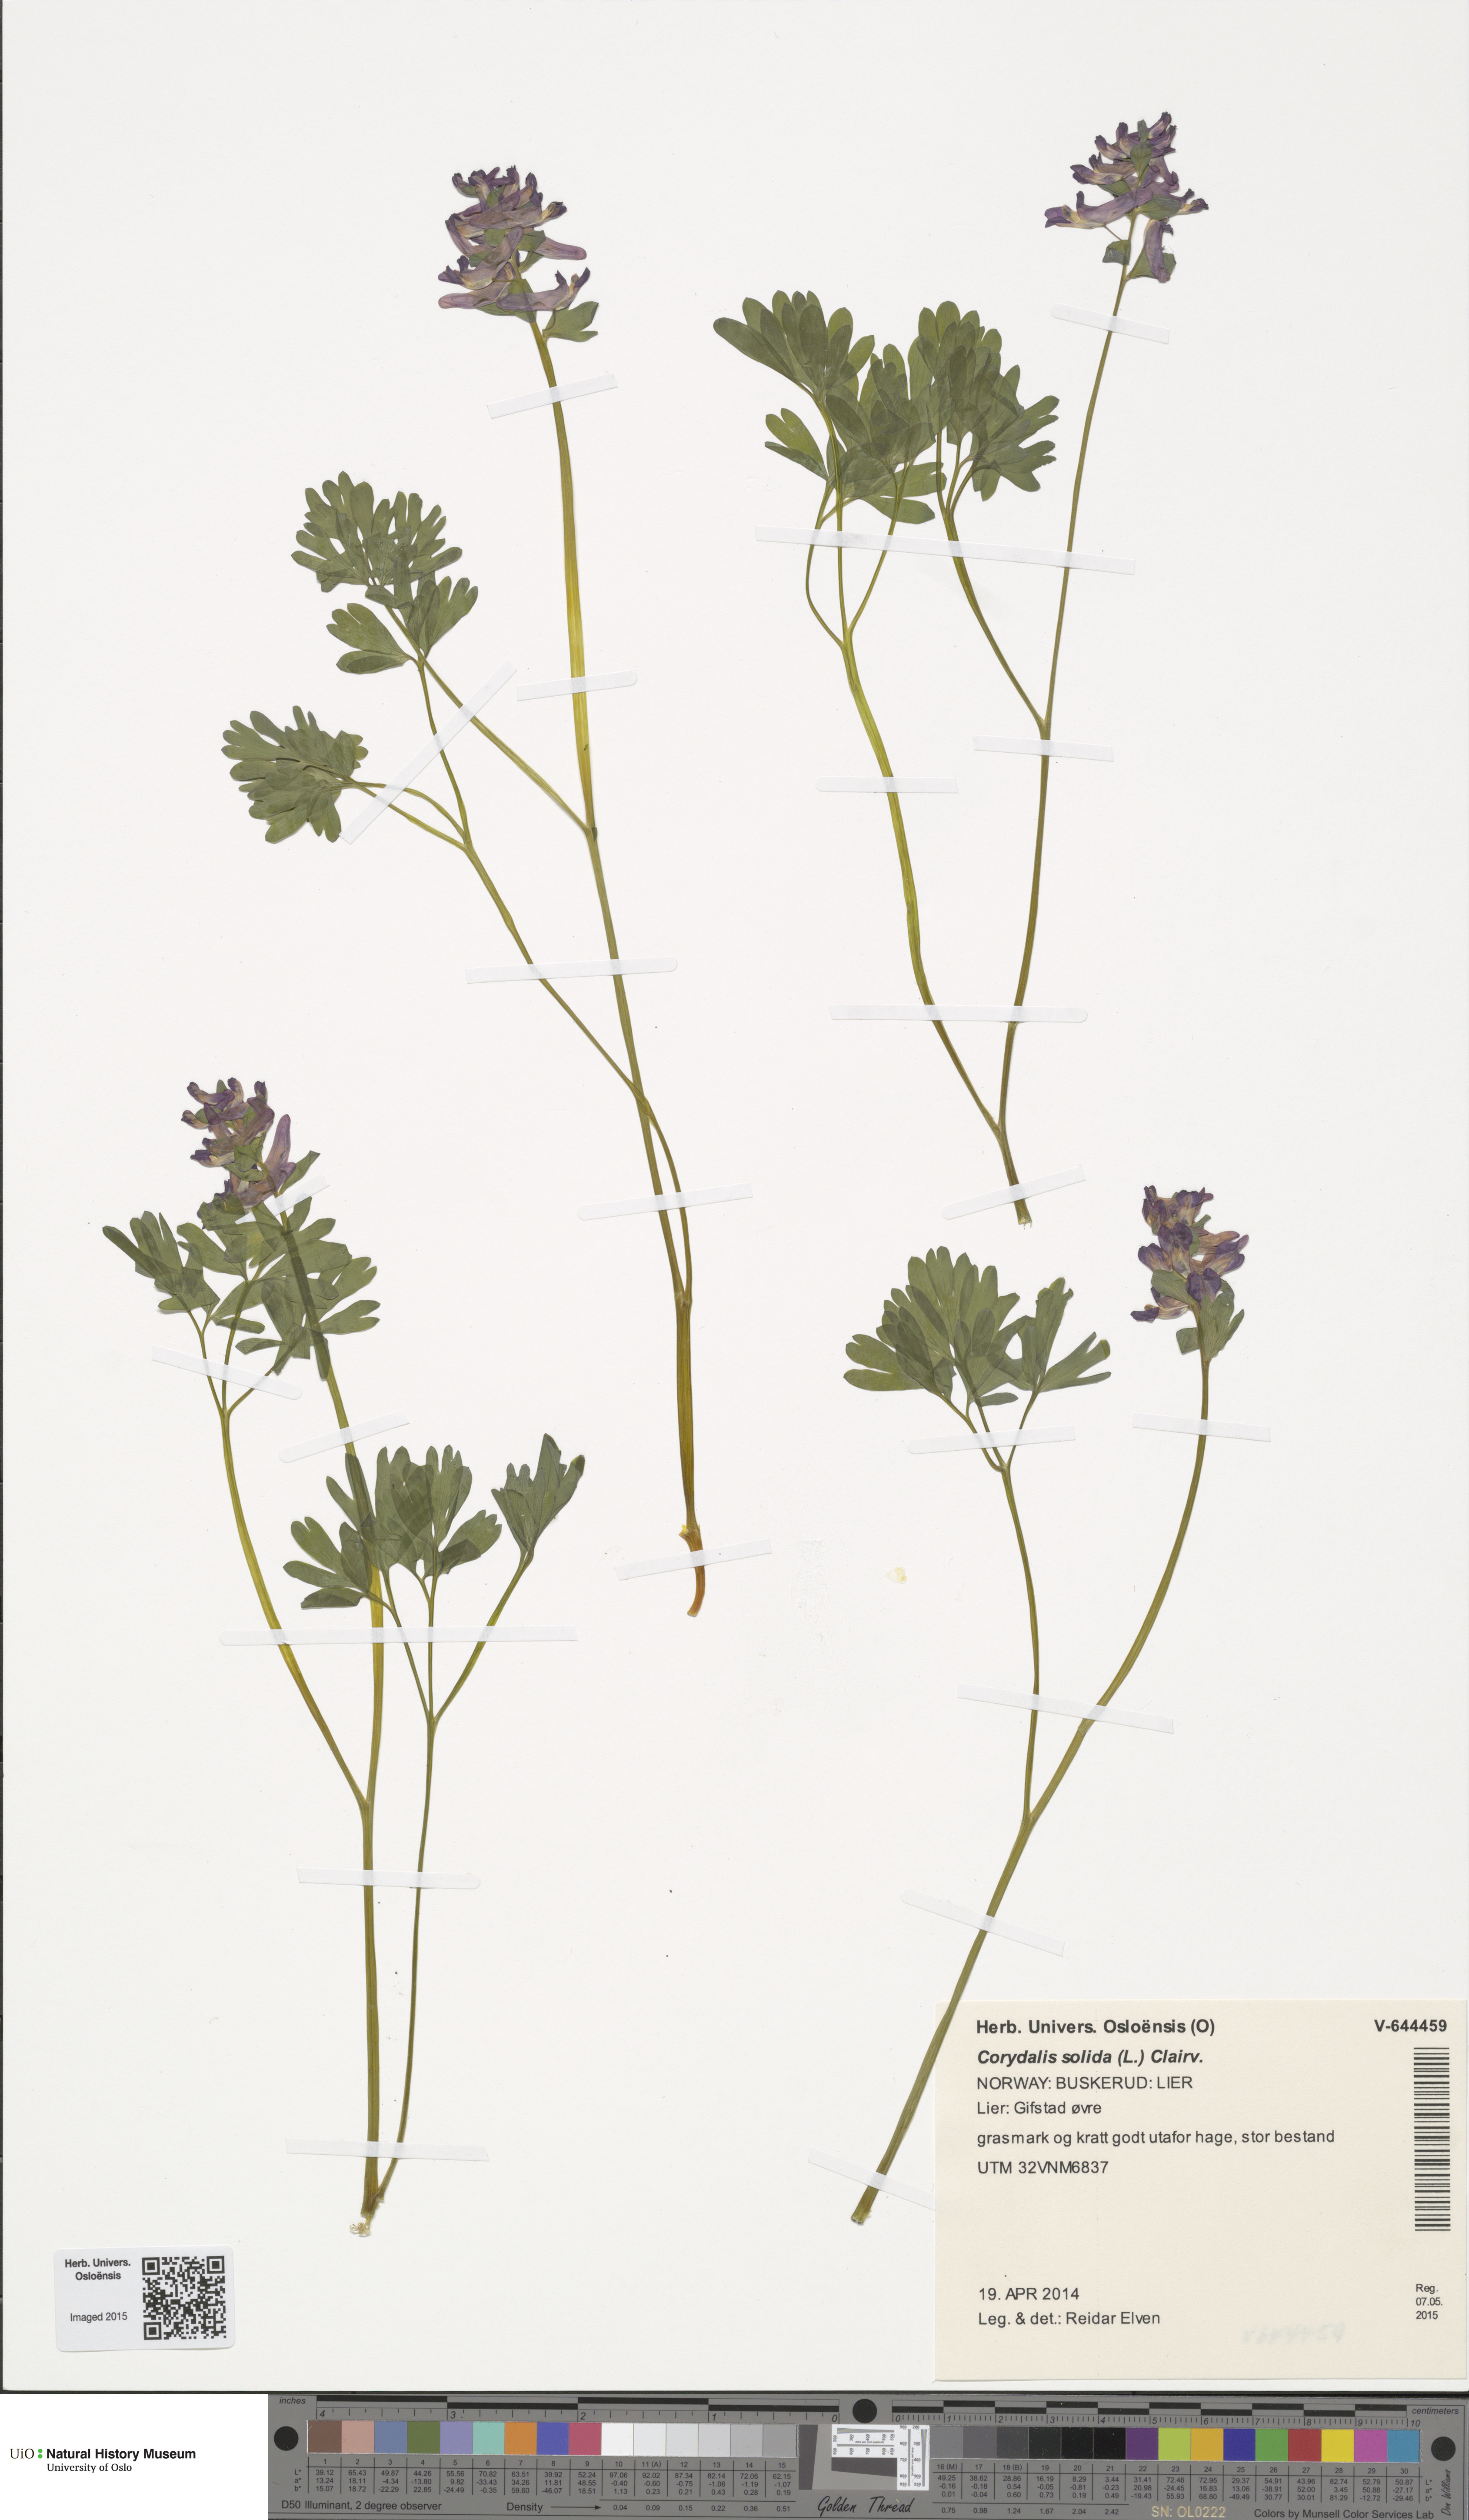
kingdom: Plantae
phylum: Tracheophyta
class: Magnoliopsida
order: Ranunculales
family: Papaveraceae
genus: Corydalis
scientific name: Corydalis solida
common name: Bird-in-a-bush
